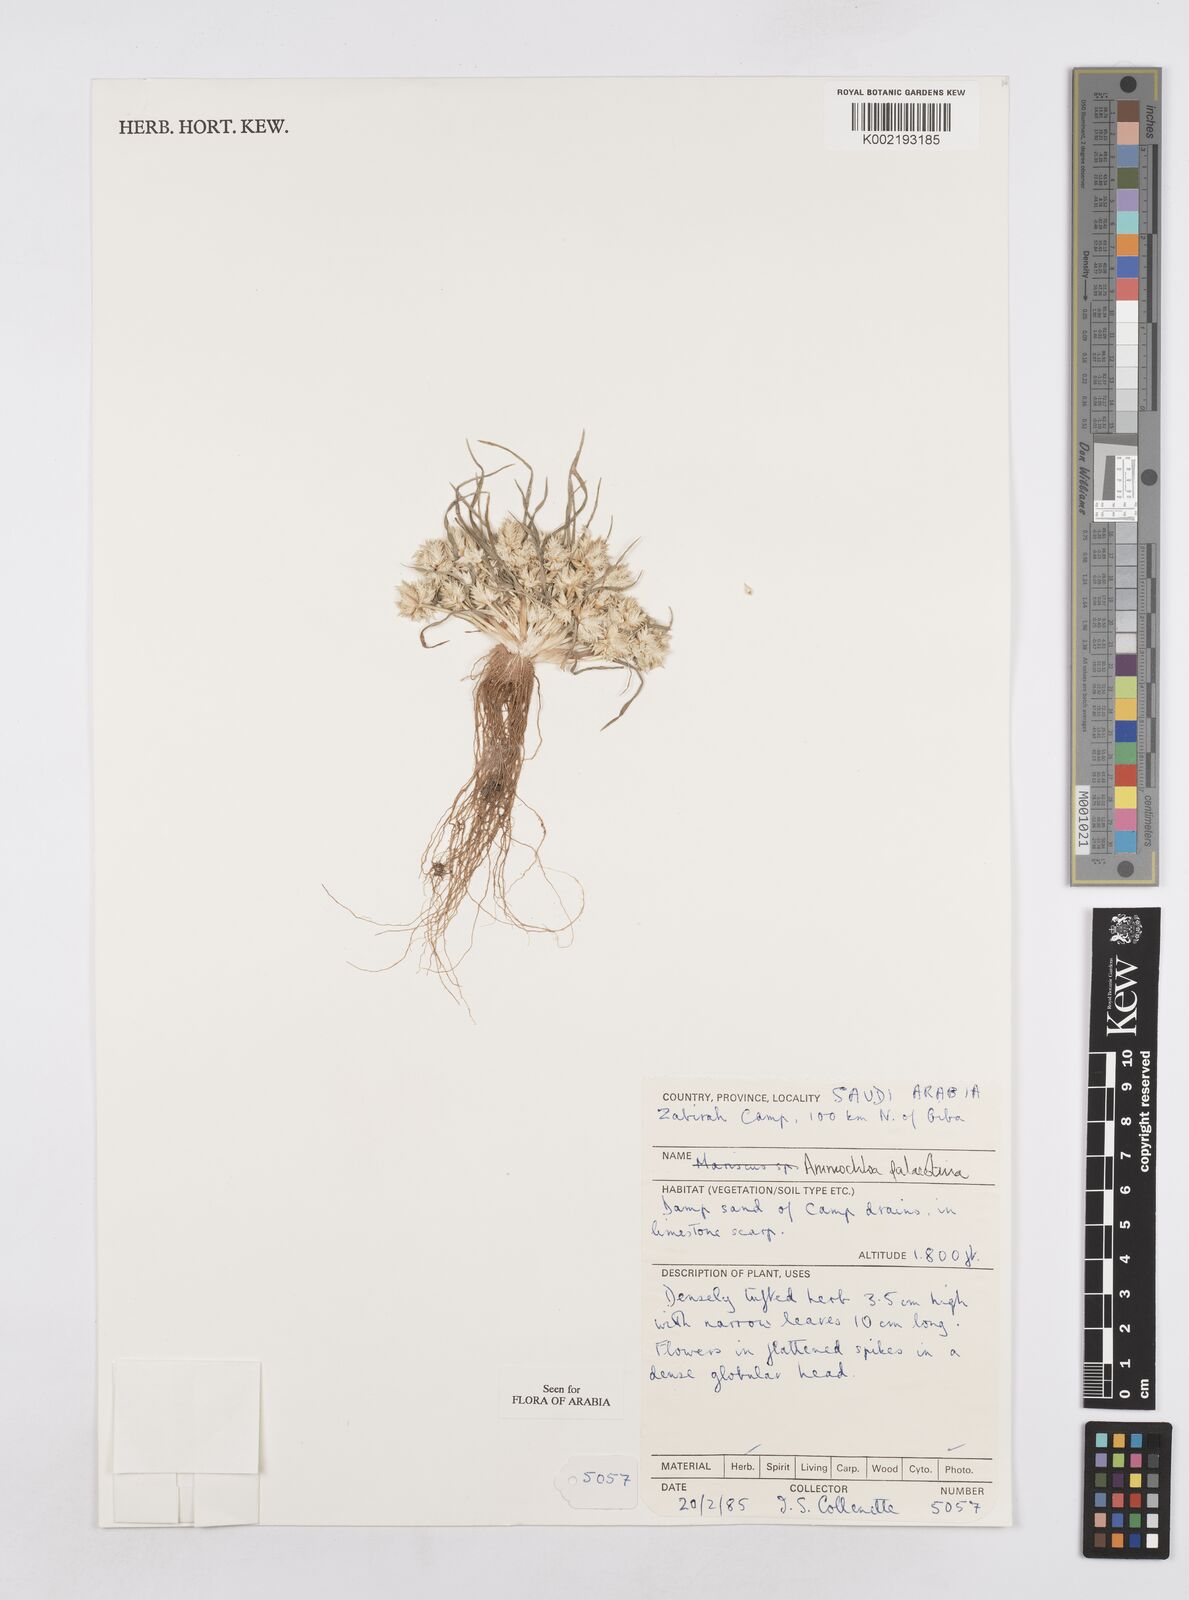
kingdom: Plantae
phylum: Tracheophyta
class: Liliopsida
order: Poales
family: Poaceae
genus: Ammochloa
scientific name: Ammochloa palaestina
